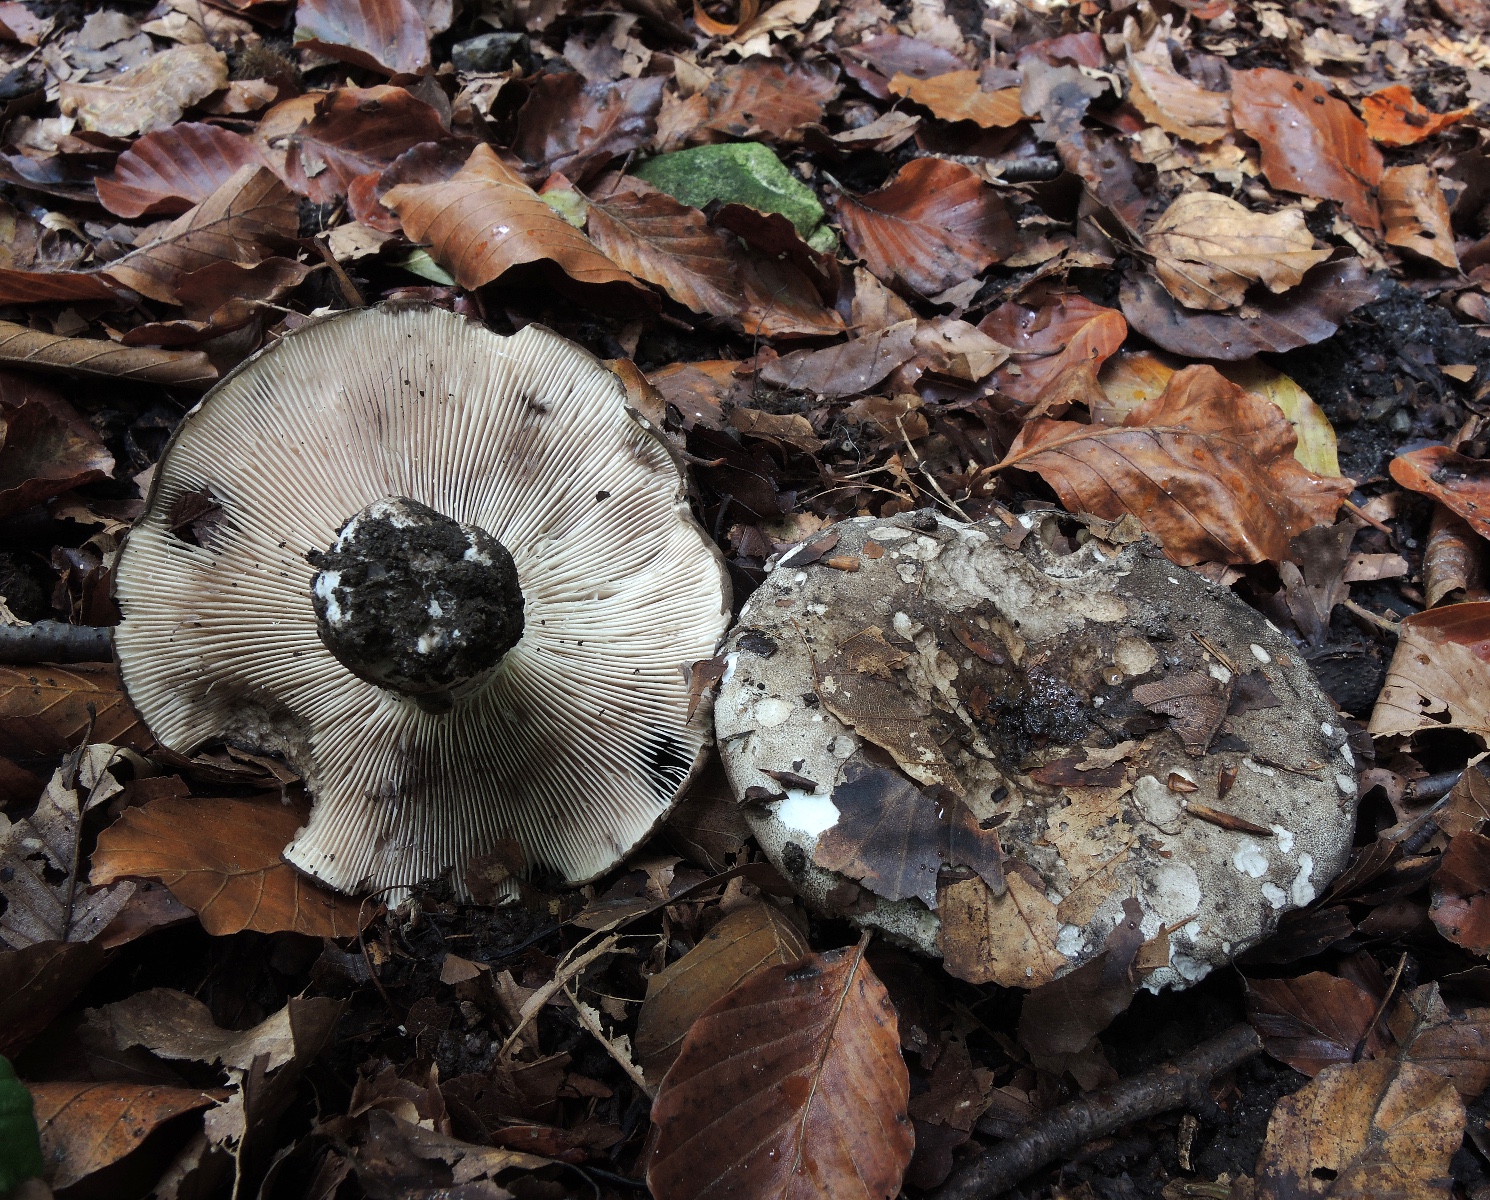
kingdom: Fungi
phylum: Basidiomycota
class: Agaricomycetes
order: Russulales
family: Russulaceae
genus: Russula
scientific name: Russula atramentosa
